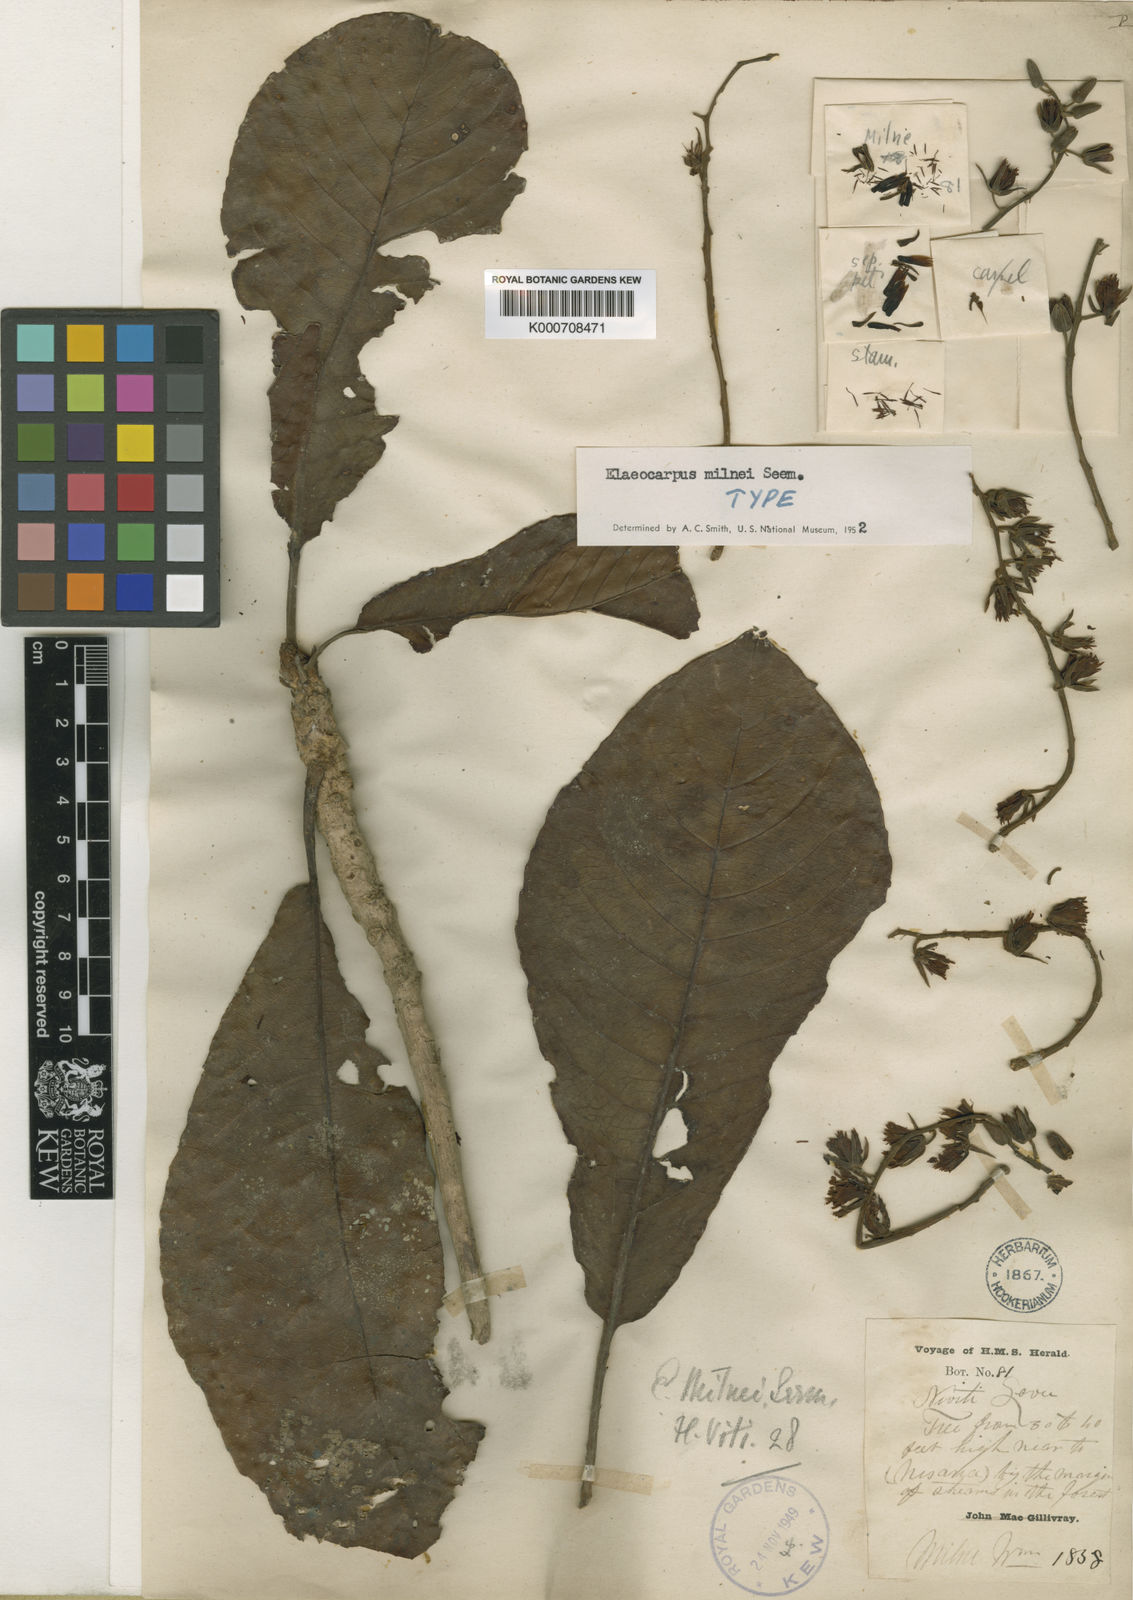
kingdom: Plantae
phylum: Tracheophyta
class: Magnoliopsida
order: Oxalidales
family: Elaeocarpaceae
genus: Elaeocarpus
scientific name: Elaeocarpus milnei
